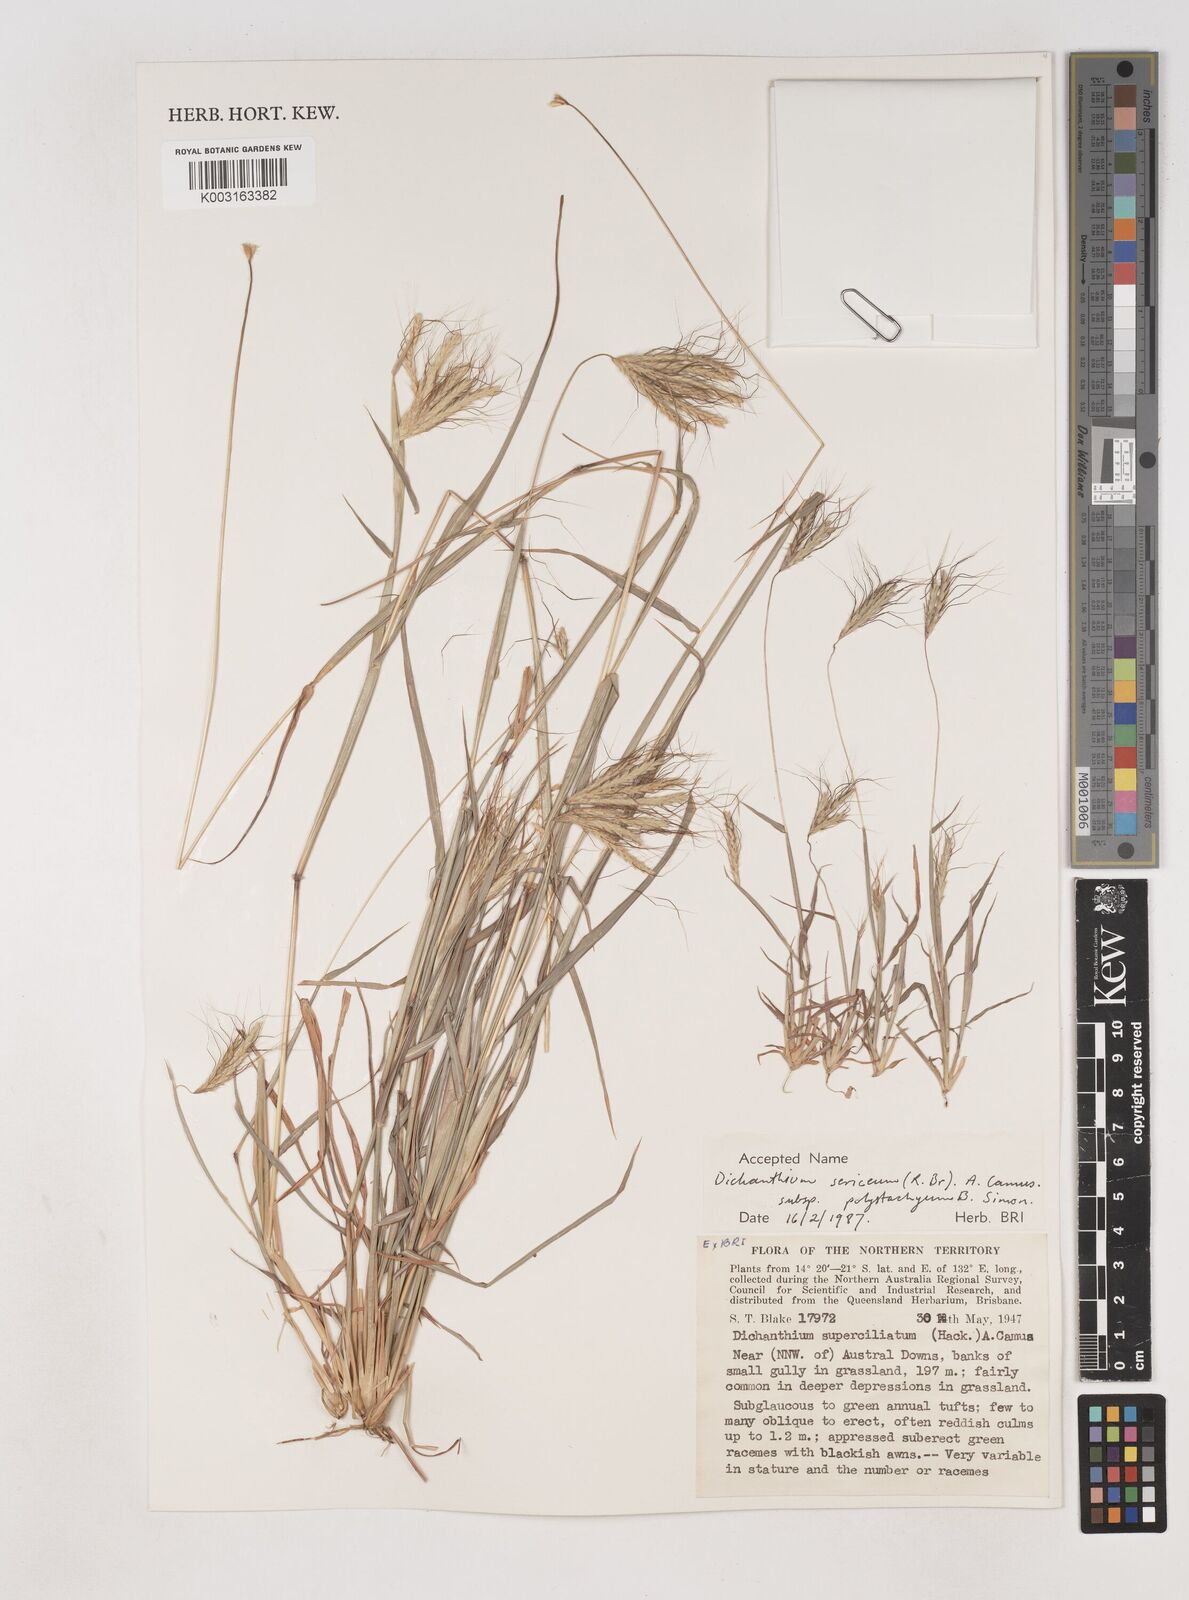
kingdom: Plantae
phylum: Tracheophyta
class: Liliopsida
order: Poales
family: Poaceae
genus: Dichanthium
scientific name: Dichanthium sericeum
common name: Silky bluestem
